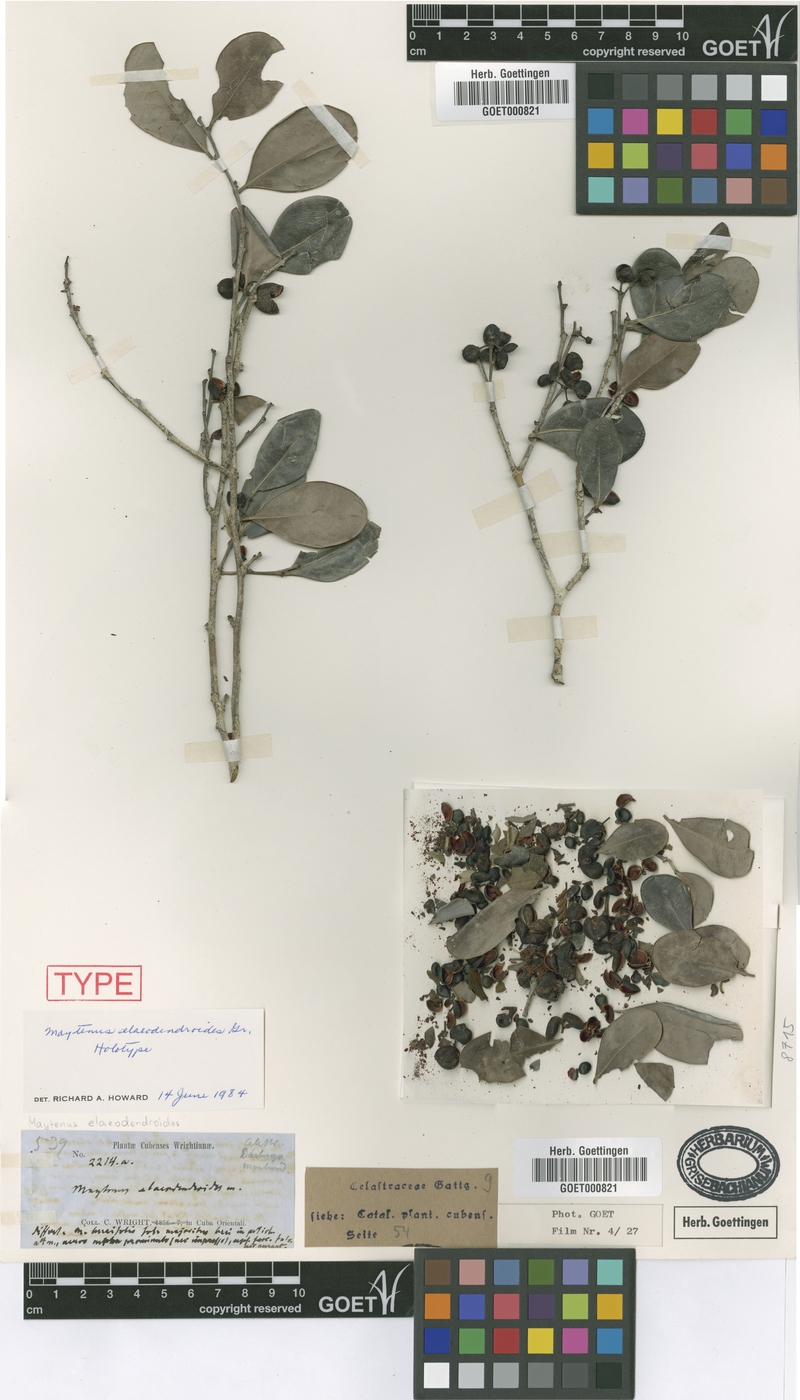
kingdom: Plantae
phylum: Tracheophyta
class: Magnoliopsida
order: Celastrales
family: Celastraceae
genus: Monteverdia
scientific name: Monteverdia elaeodendroides
